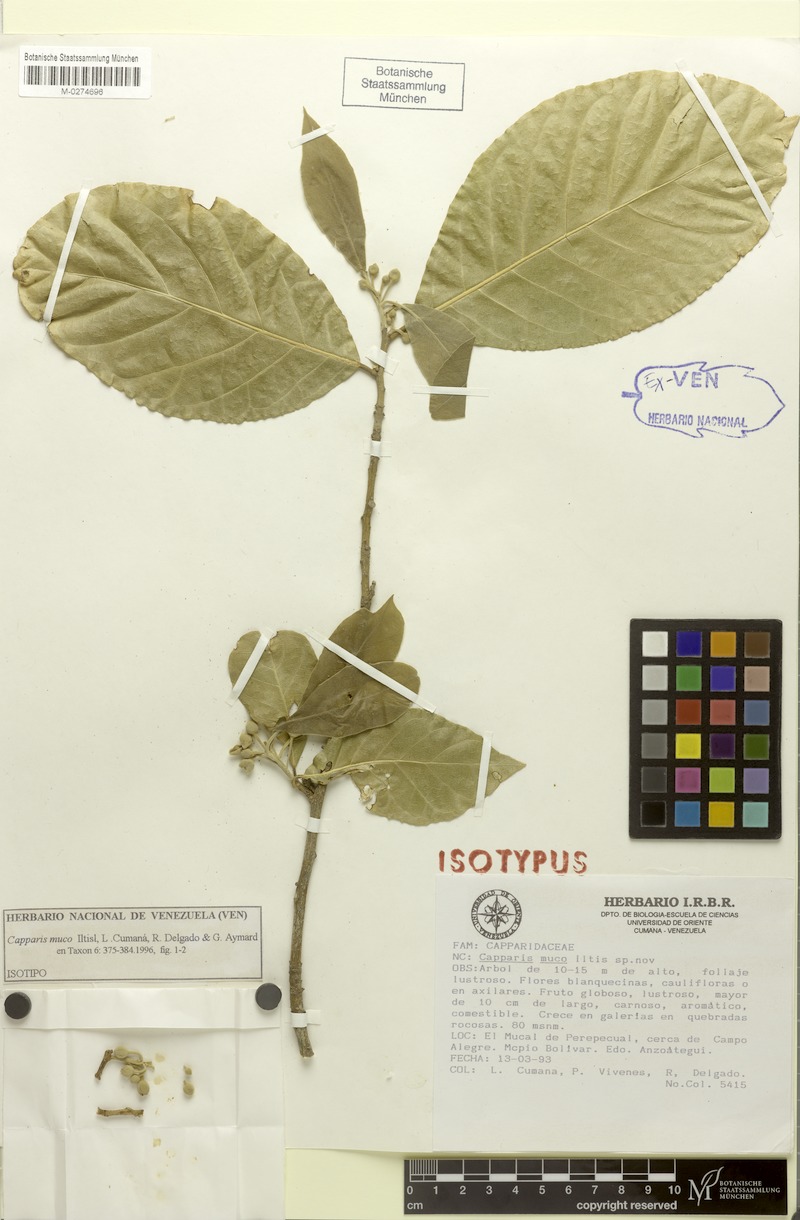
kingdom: Plantae
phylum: Tracheophyta
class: Magnoliopsida
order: Brassicales
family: Capparaceae
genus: Neocalyptrocalyx
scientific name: Neocalyptrocalyx muco
